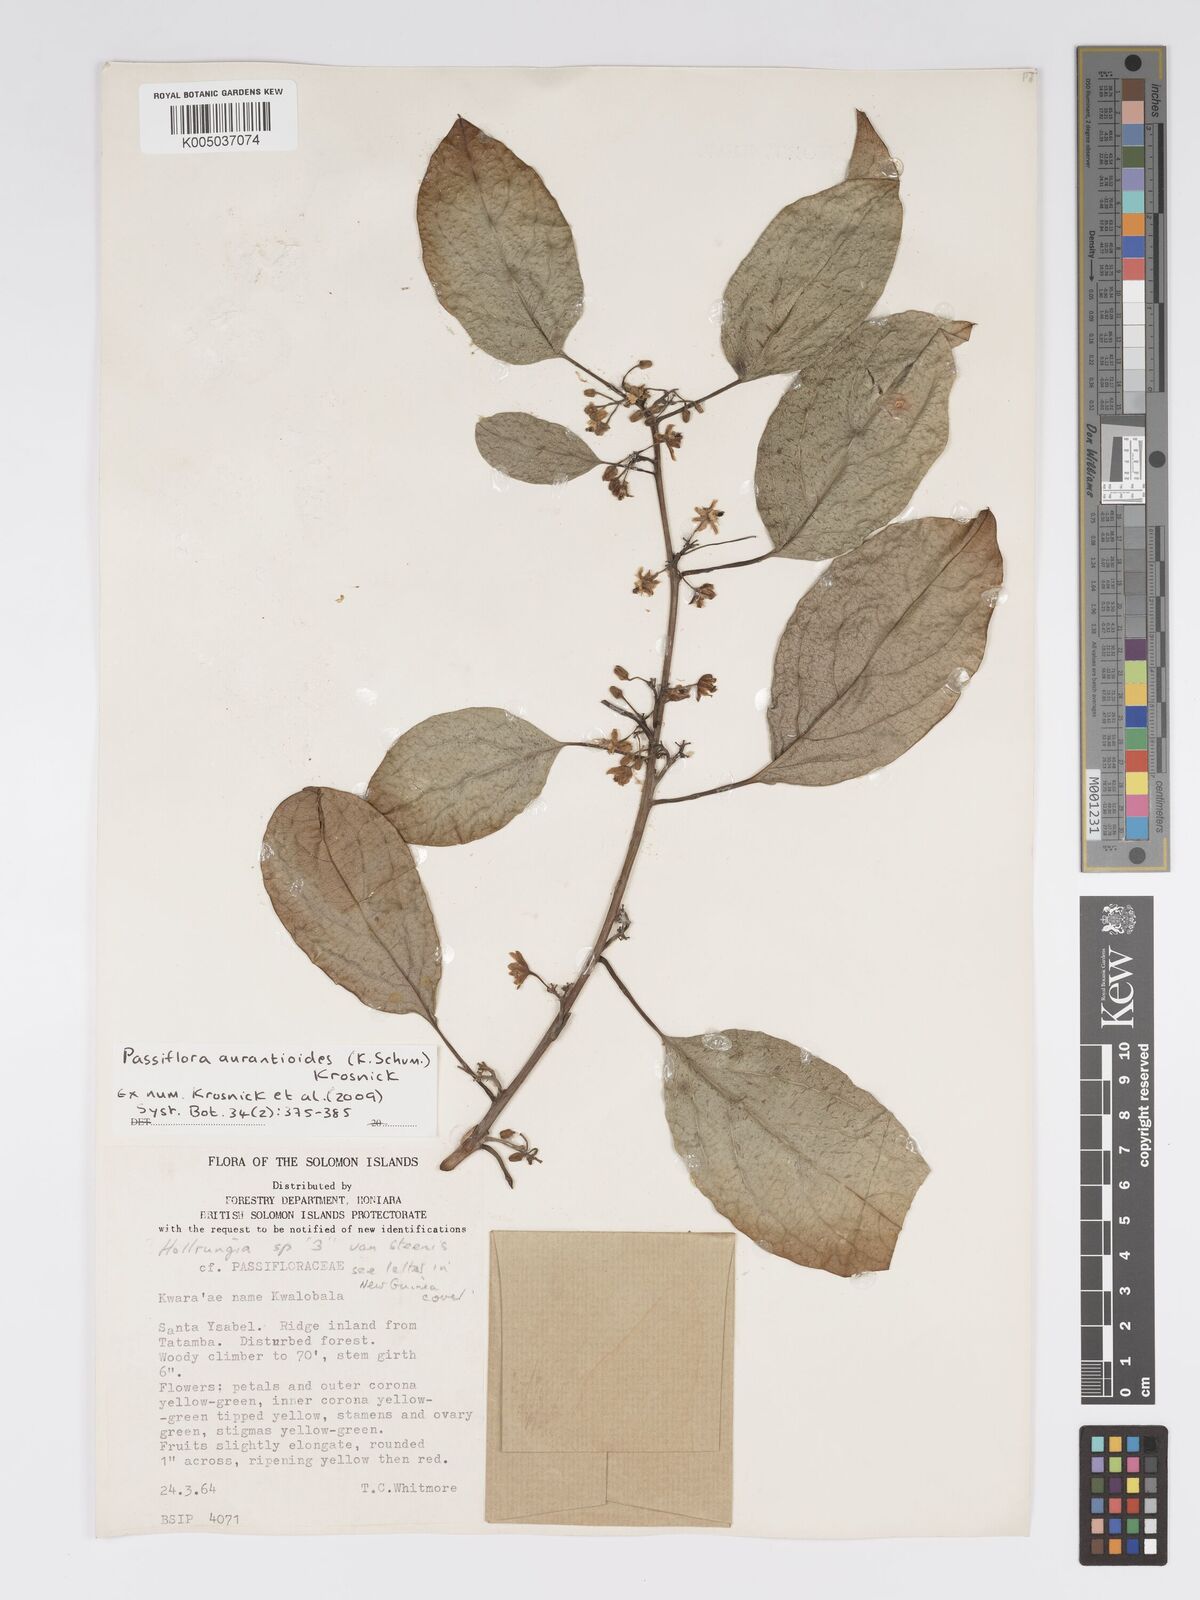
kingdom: Plantae
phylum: Tracheophyta
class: Magnoliopsida
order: Malpighiales
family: Passifloraceae
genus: Passiflora
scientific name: Passiflora aurantioides
